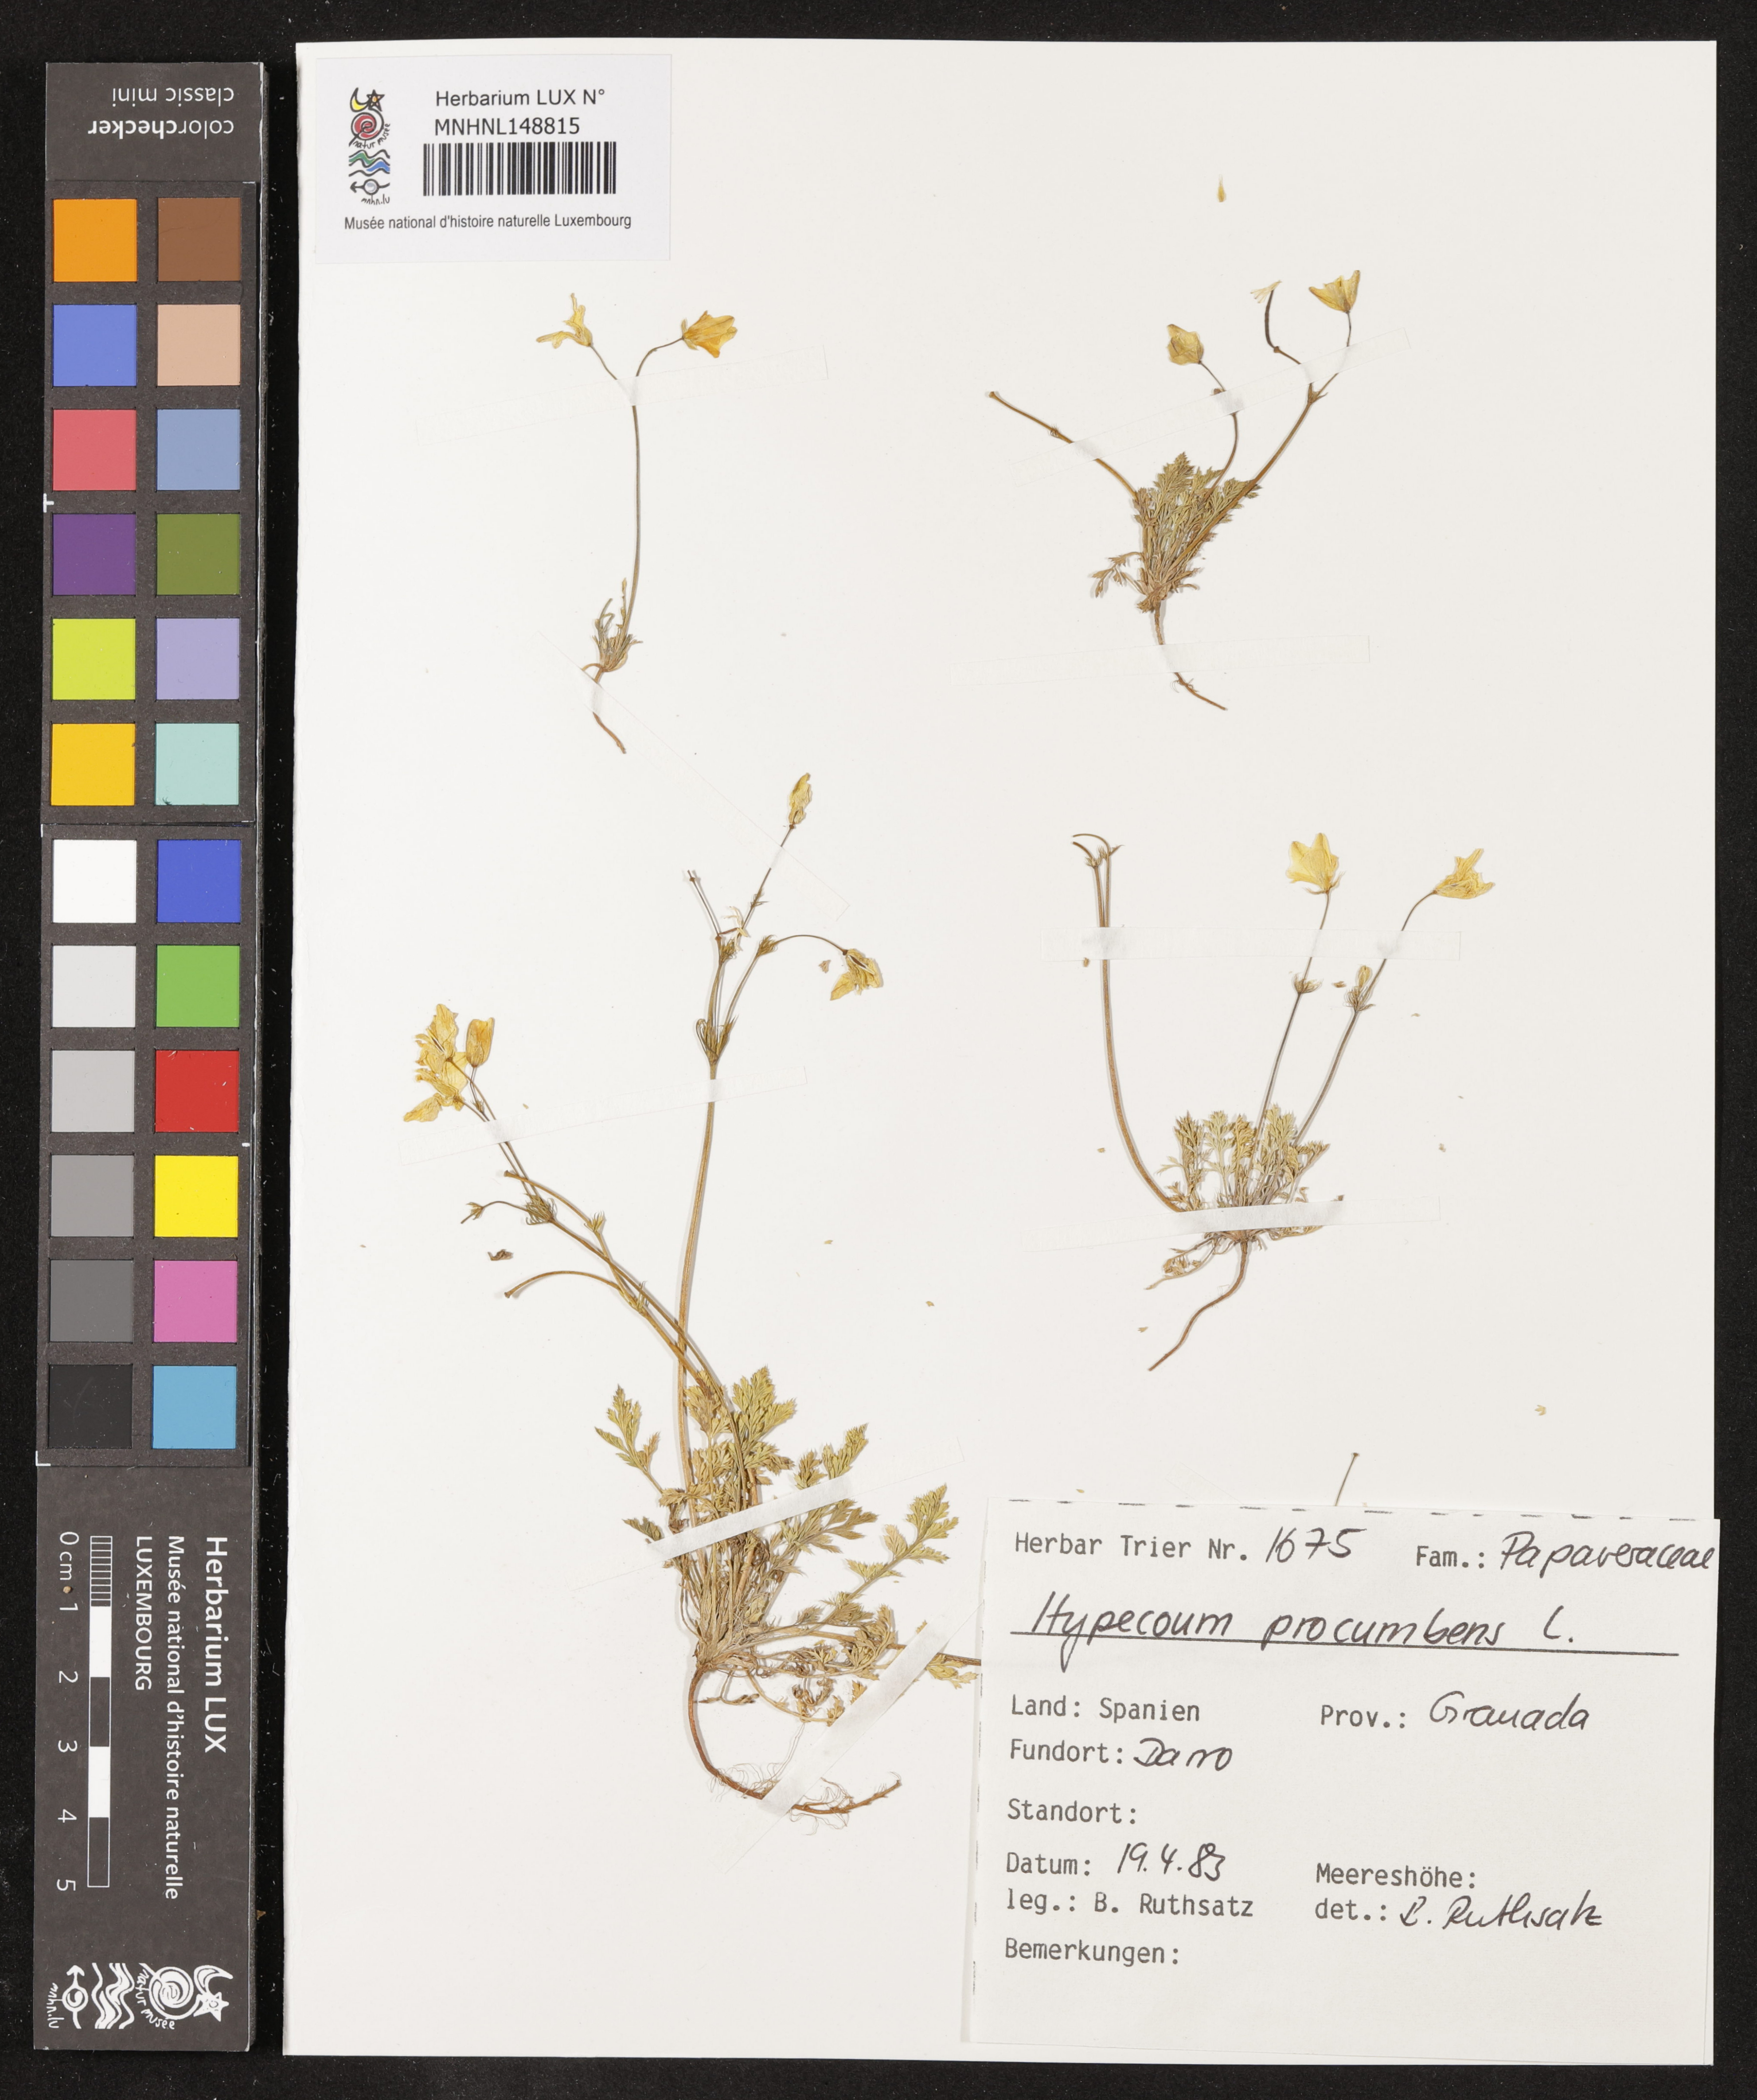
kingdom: Plantae
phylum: Tracheophyta
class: Magnoliopsida
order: Ranunculales
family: Papaveraceae
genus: Hypecoum
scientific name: Hypecoum procumbens
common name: Procumbent hypecoum
